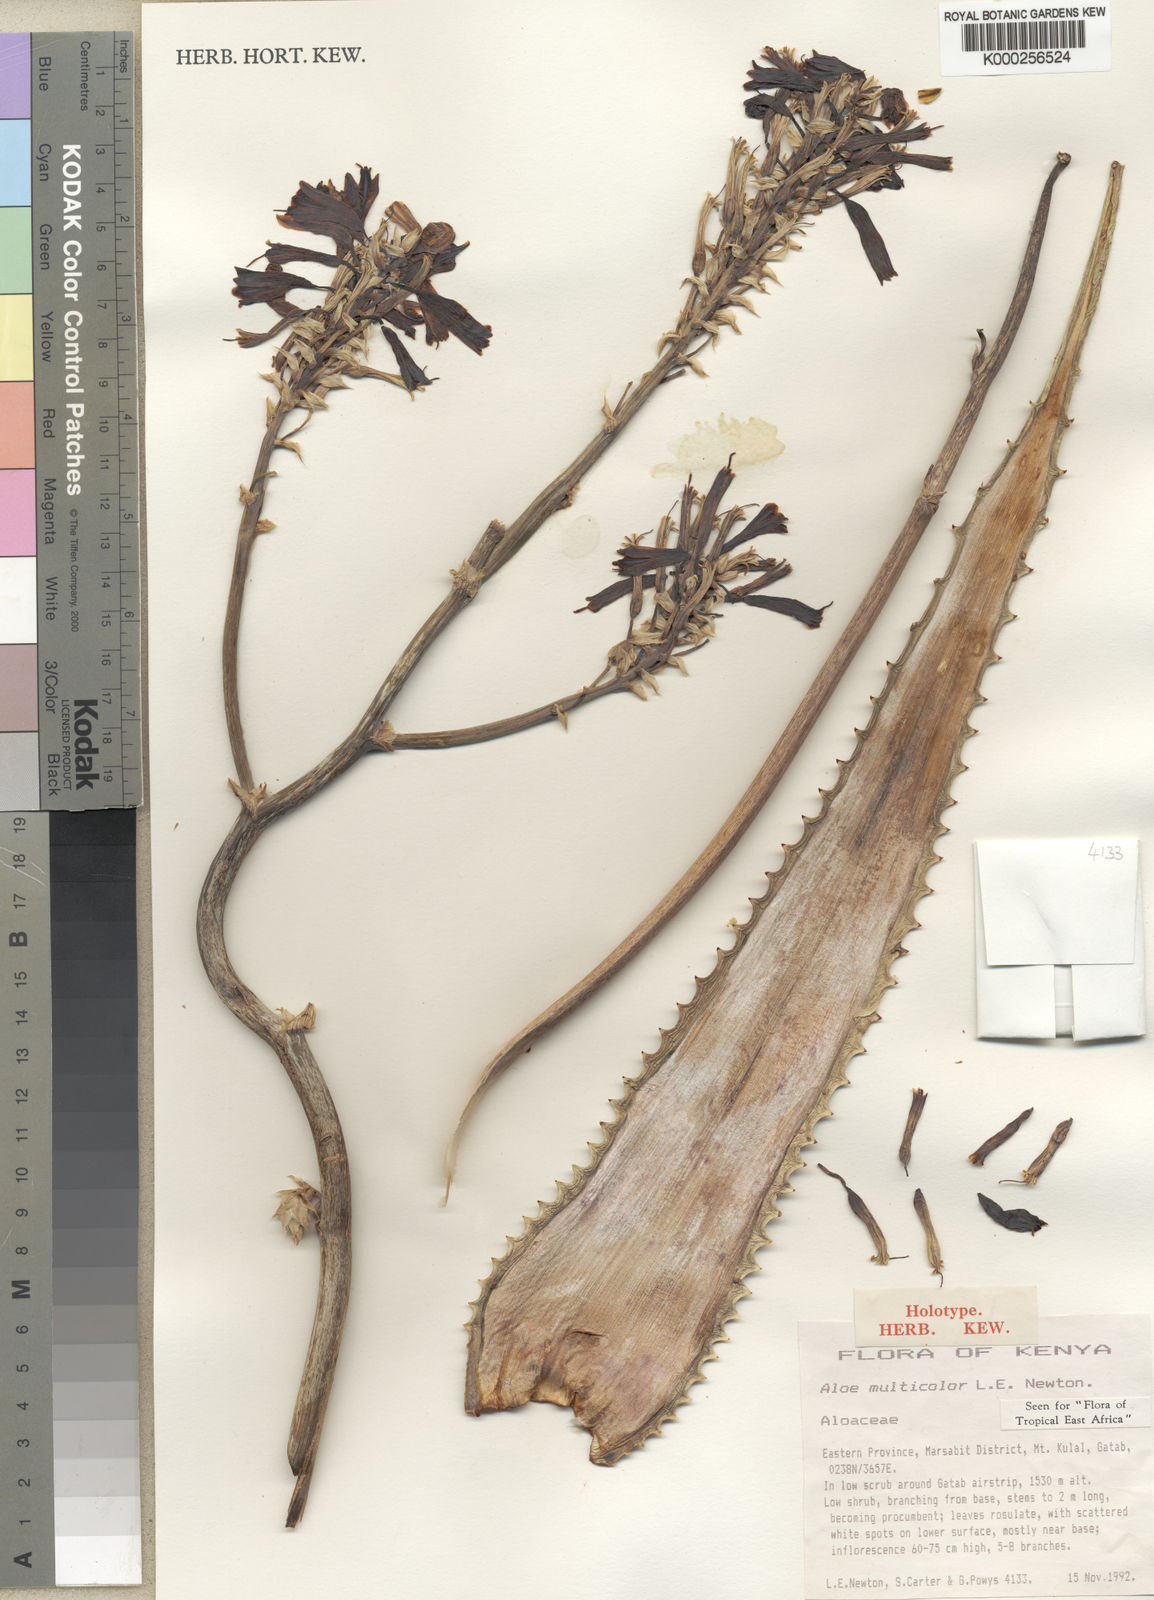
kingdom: Plantae
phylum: Tracheophyta
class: Liliopsida
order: Asparagales
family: Asphodelaceae
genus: Aloe
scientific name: Aloe multicolor
